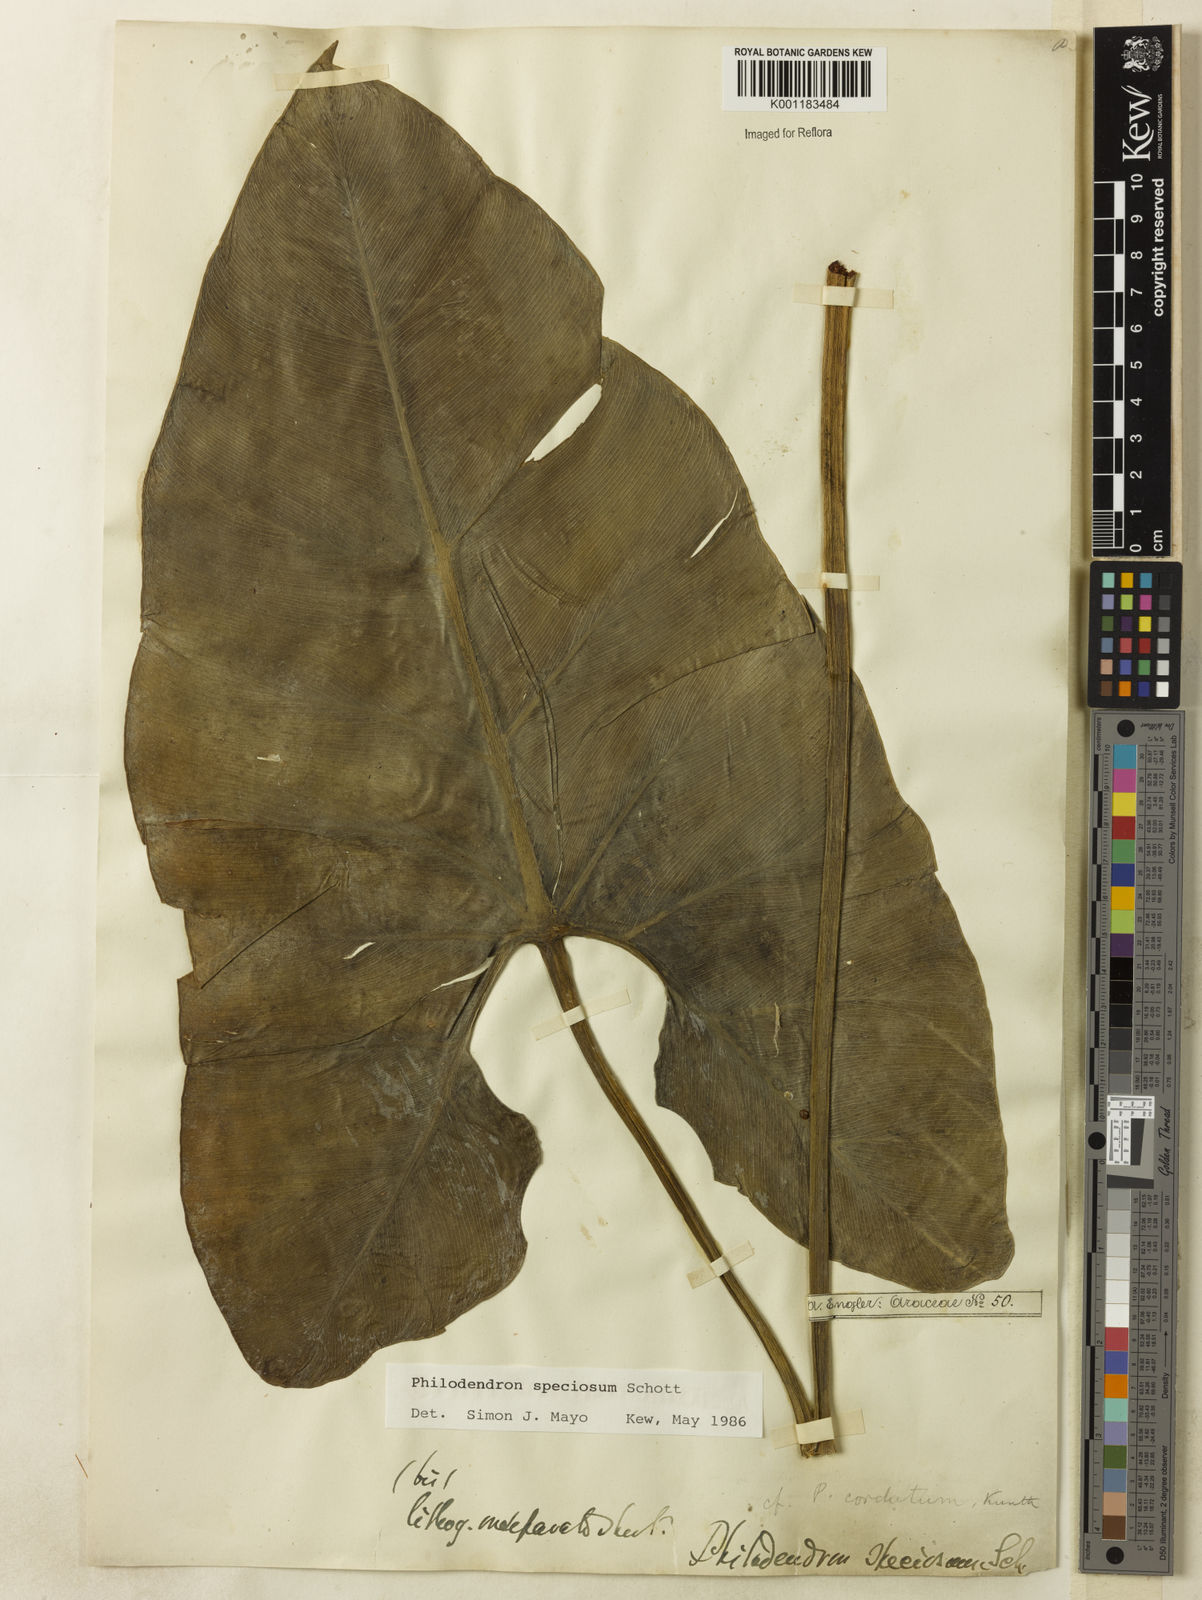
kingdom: Plantae
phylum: Tracheophyta
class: Liliopsida
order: Alismatales
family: Araceae
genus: Thaumatophyllum
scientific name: Thaumatophyllum speciosum
